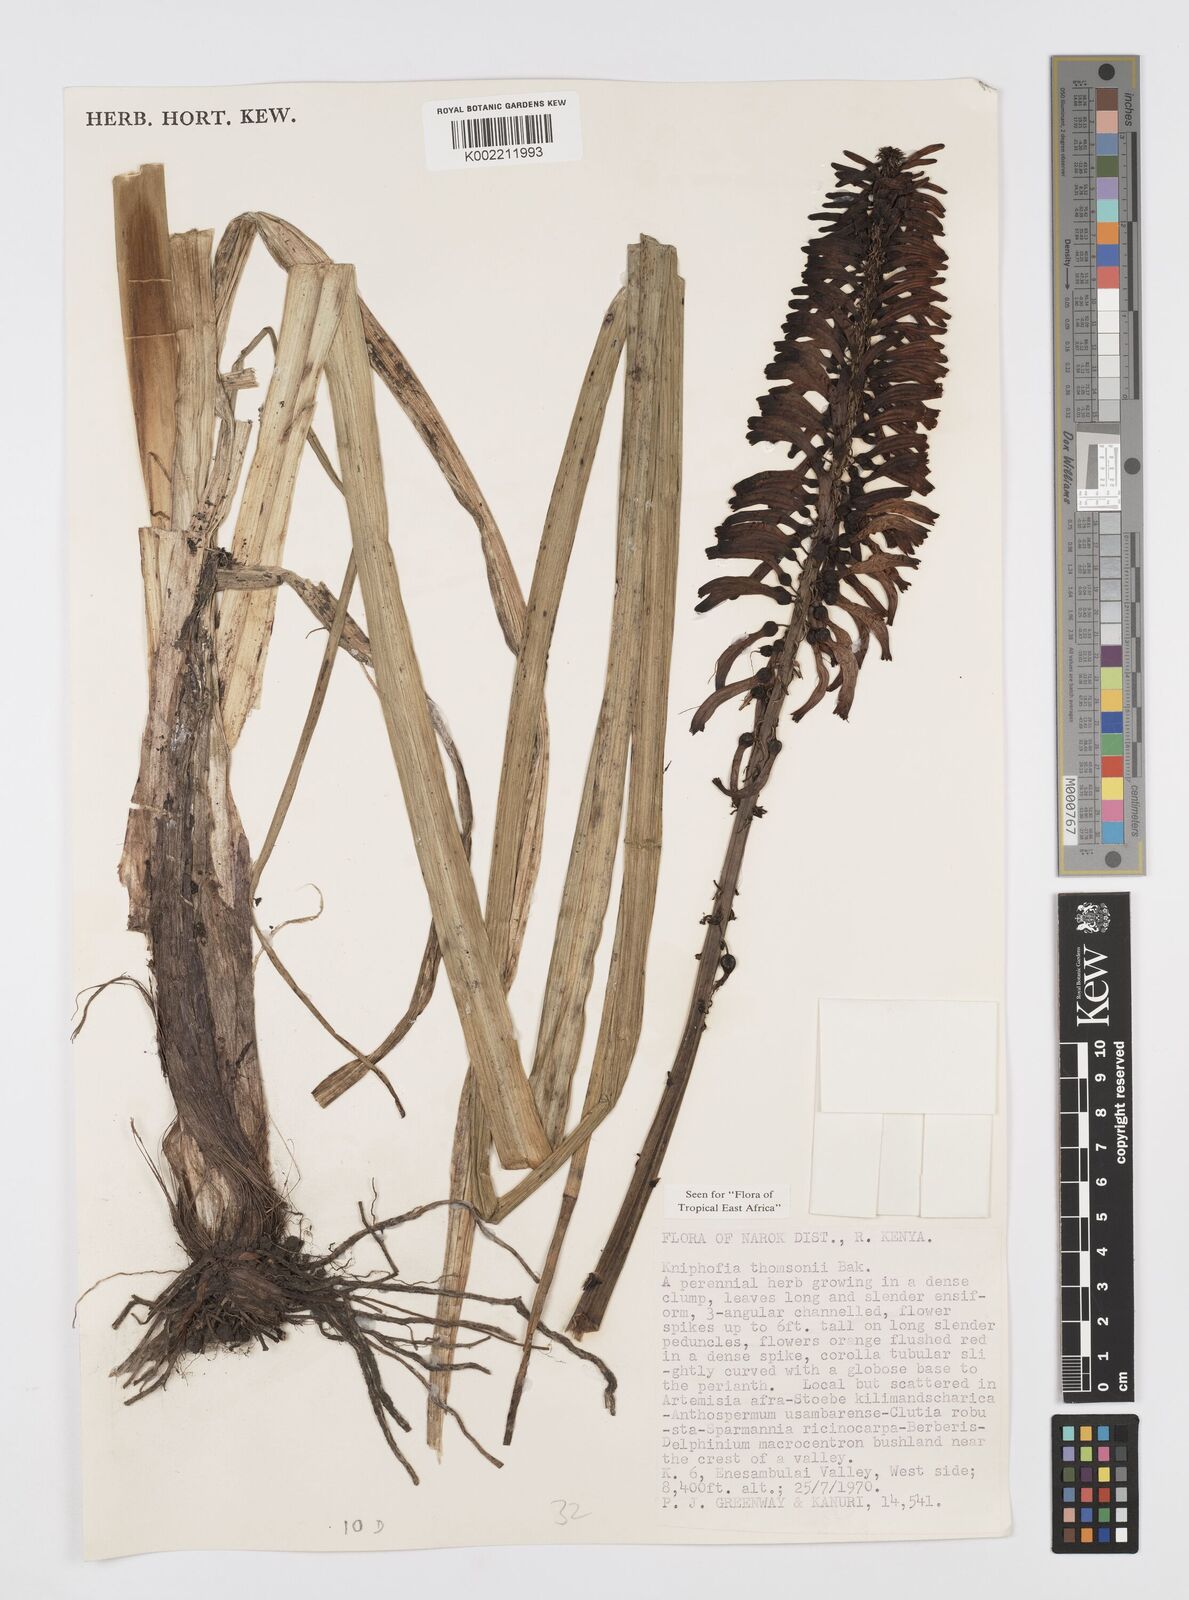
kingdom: Plantae
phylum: Tracheophyta
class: Liliopsida
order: Asparagales
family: Asphodelaceae
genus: Kniphofia
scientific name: Kniphofia thomsonii
